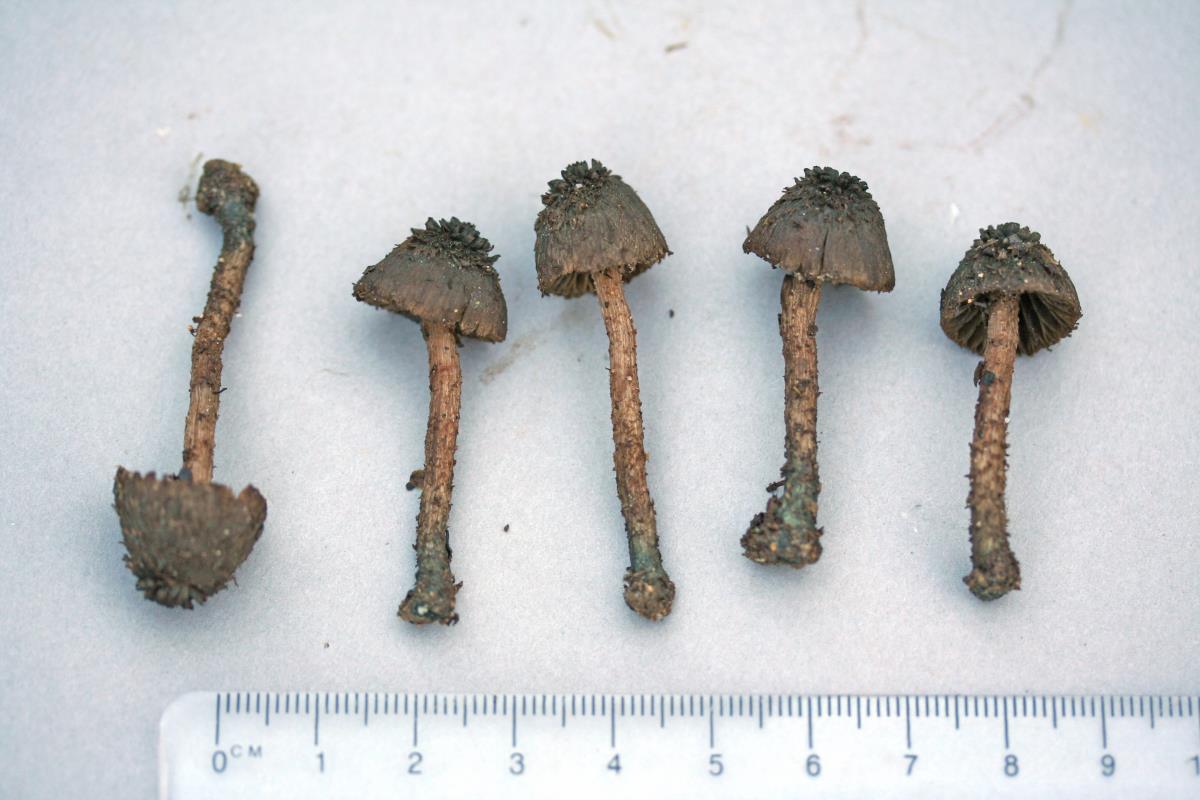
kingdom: Fungi
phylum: Basidiomycota
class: Agaricomycetes
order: Agaricales
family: Inocybaceae
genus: Inosperma
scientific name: Inosperma latericium
